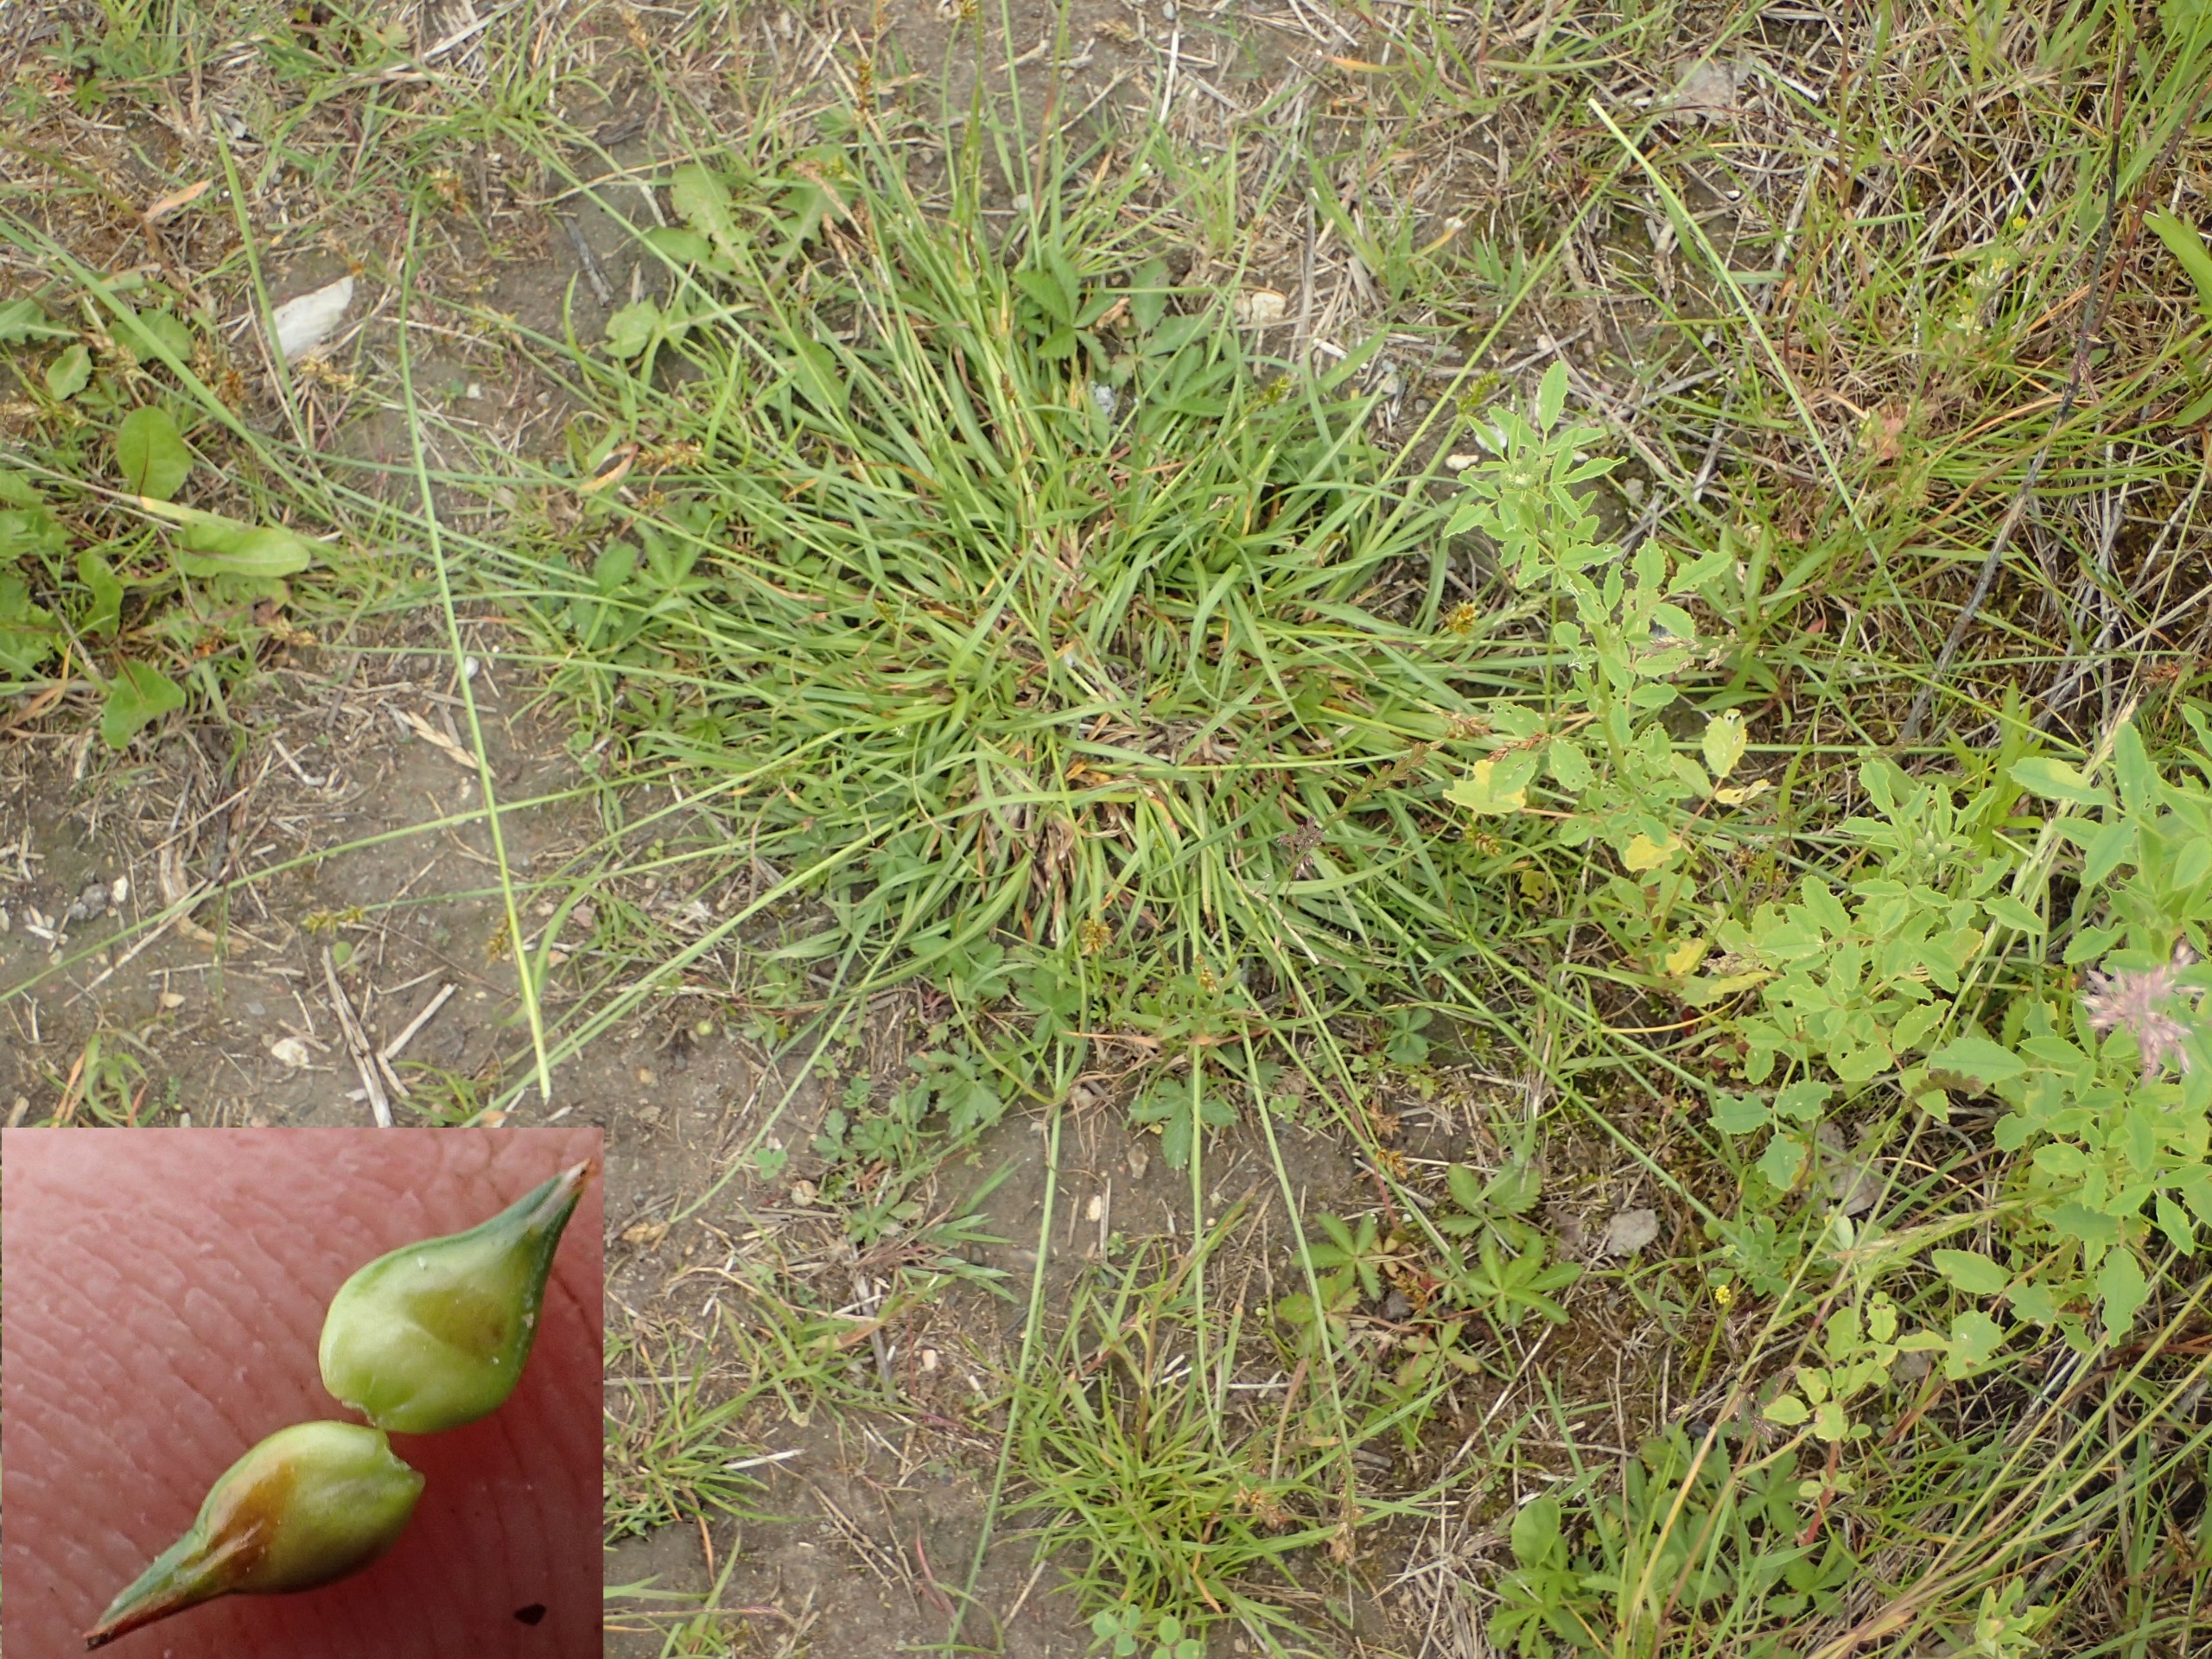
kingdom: Plantae
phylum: Tracheophyta
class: Liliopsida
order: Poales
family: Cyperaceae
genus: Carex
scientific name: Carex spicata
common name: Spidskapslet star
